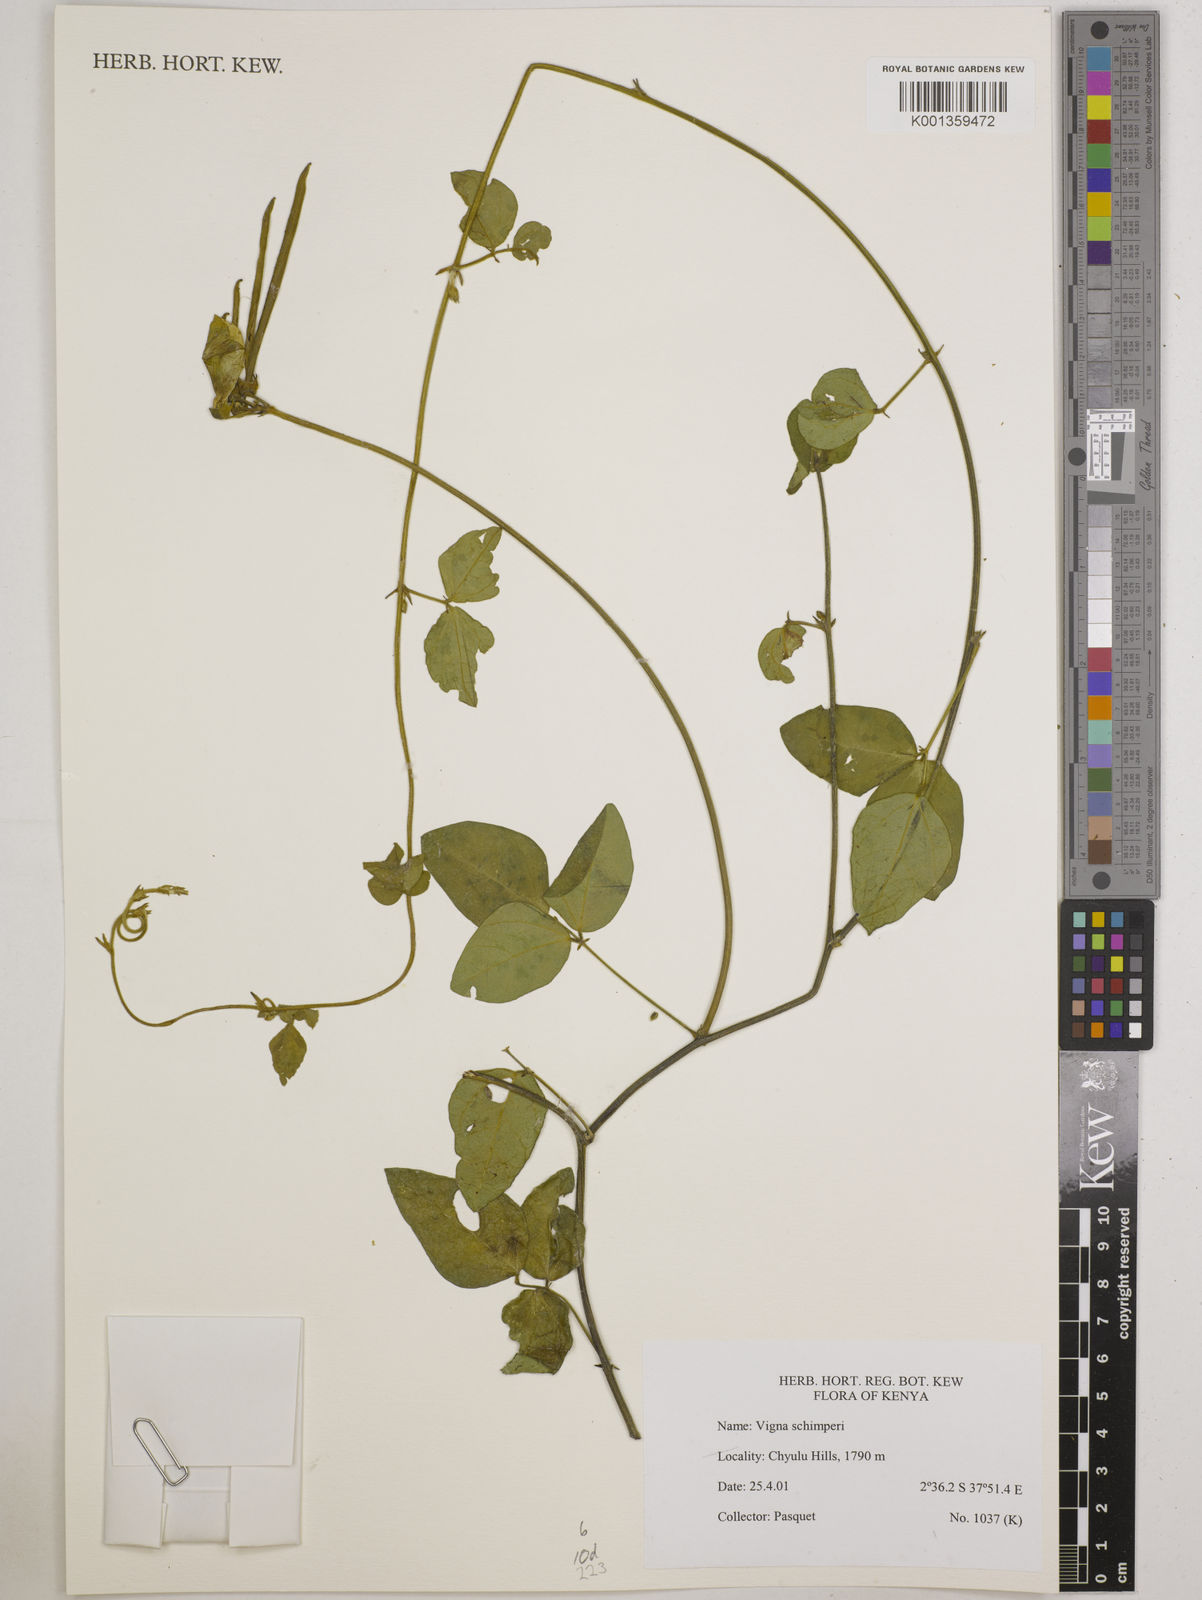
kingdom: Plantae
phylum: Tracheophyta
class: Magnoliopsida
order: Fabales
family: Fabaceae
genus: Vigna
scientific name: Vigna schimperi
